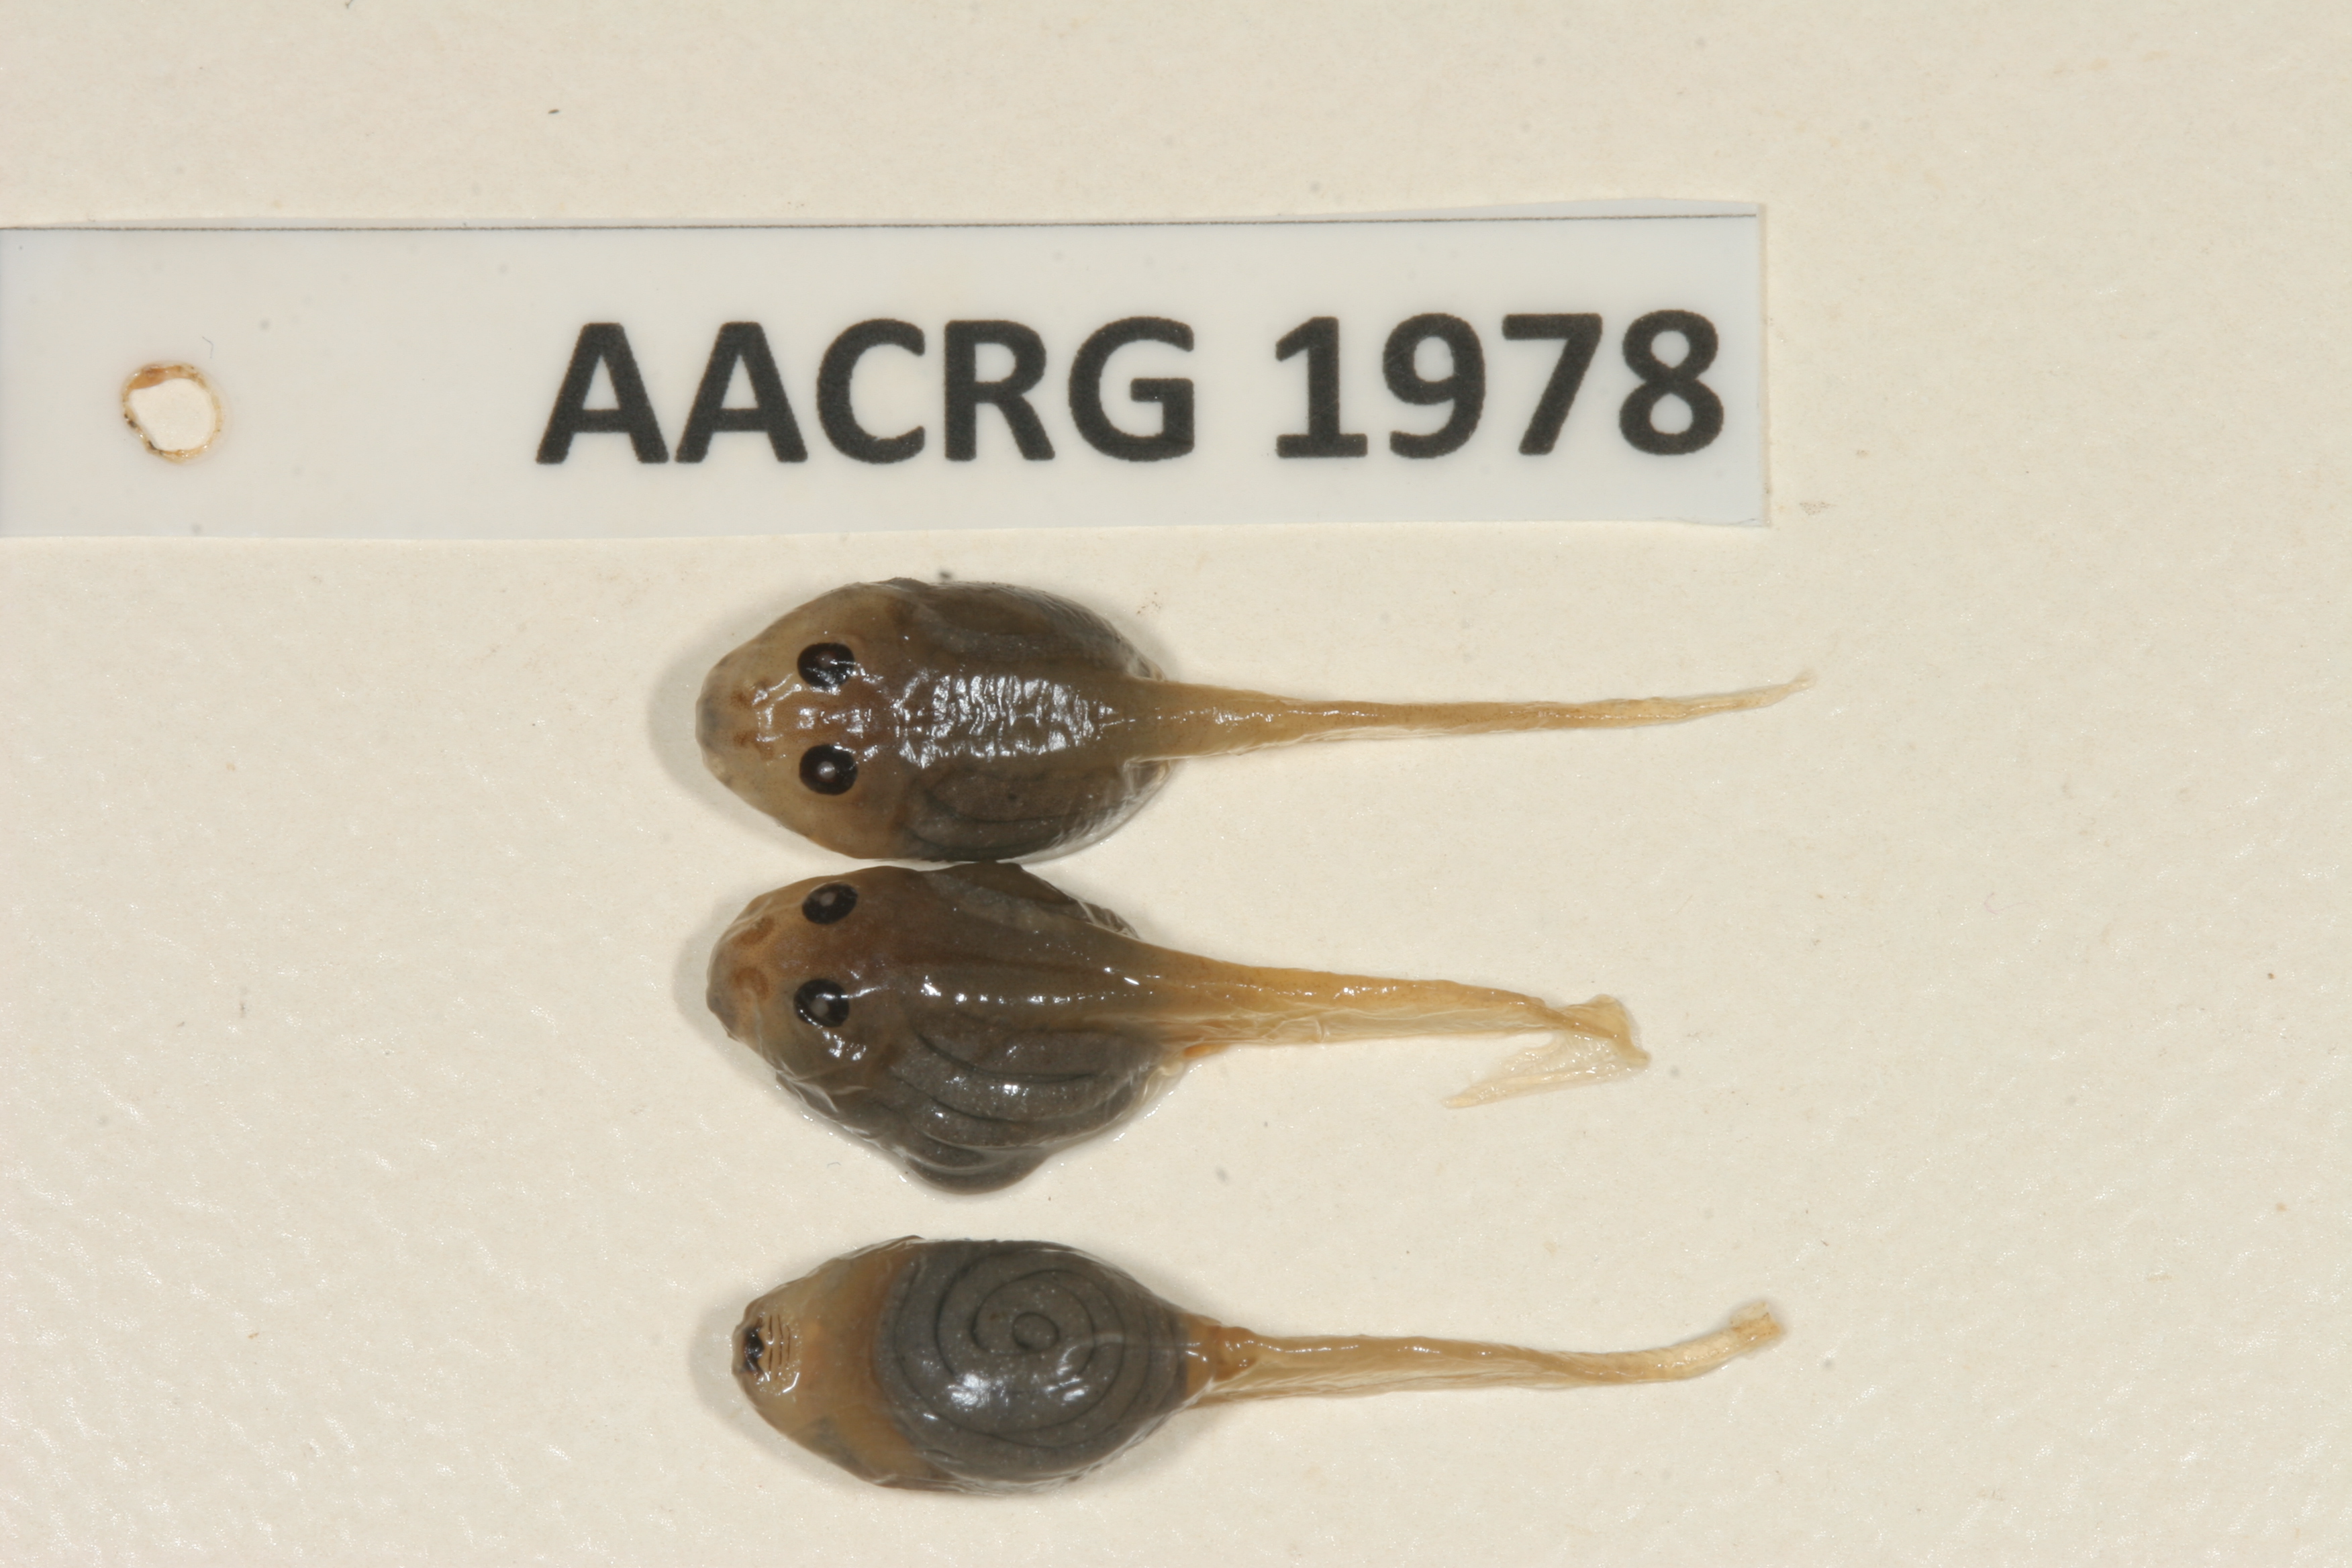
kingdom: Animalia
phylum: Chordata
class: Amphibia
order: Anura
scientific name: Anura
